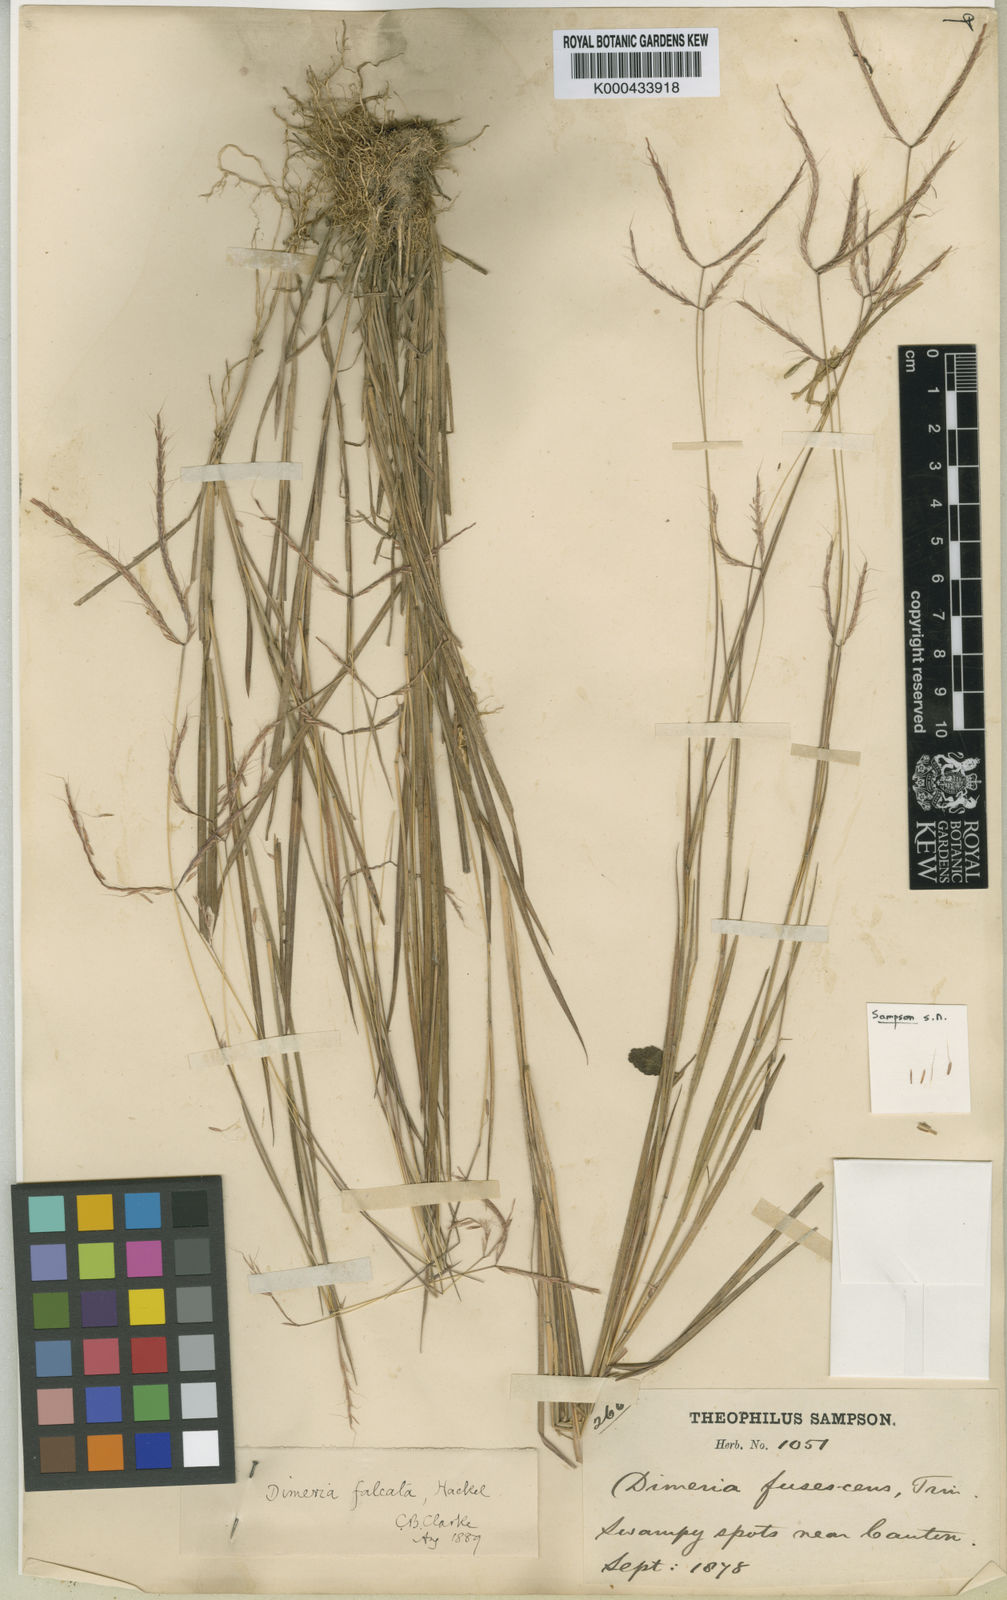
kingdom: Plantae
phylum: Tracheophyta
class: Liliopsida
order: Poales
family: Poaceae
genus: Dimeria
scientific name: Dimeria falcata
